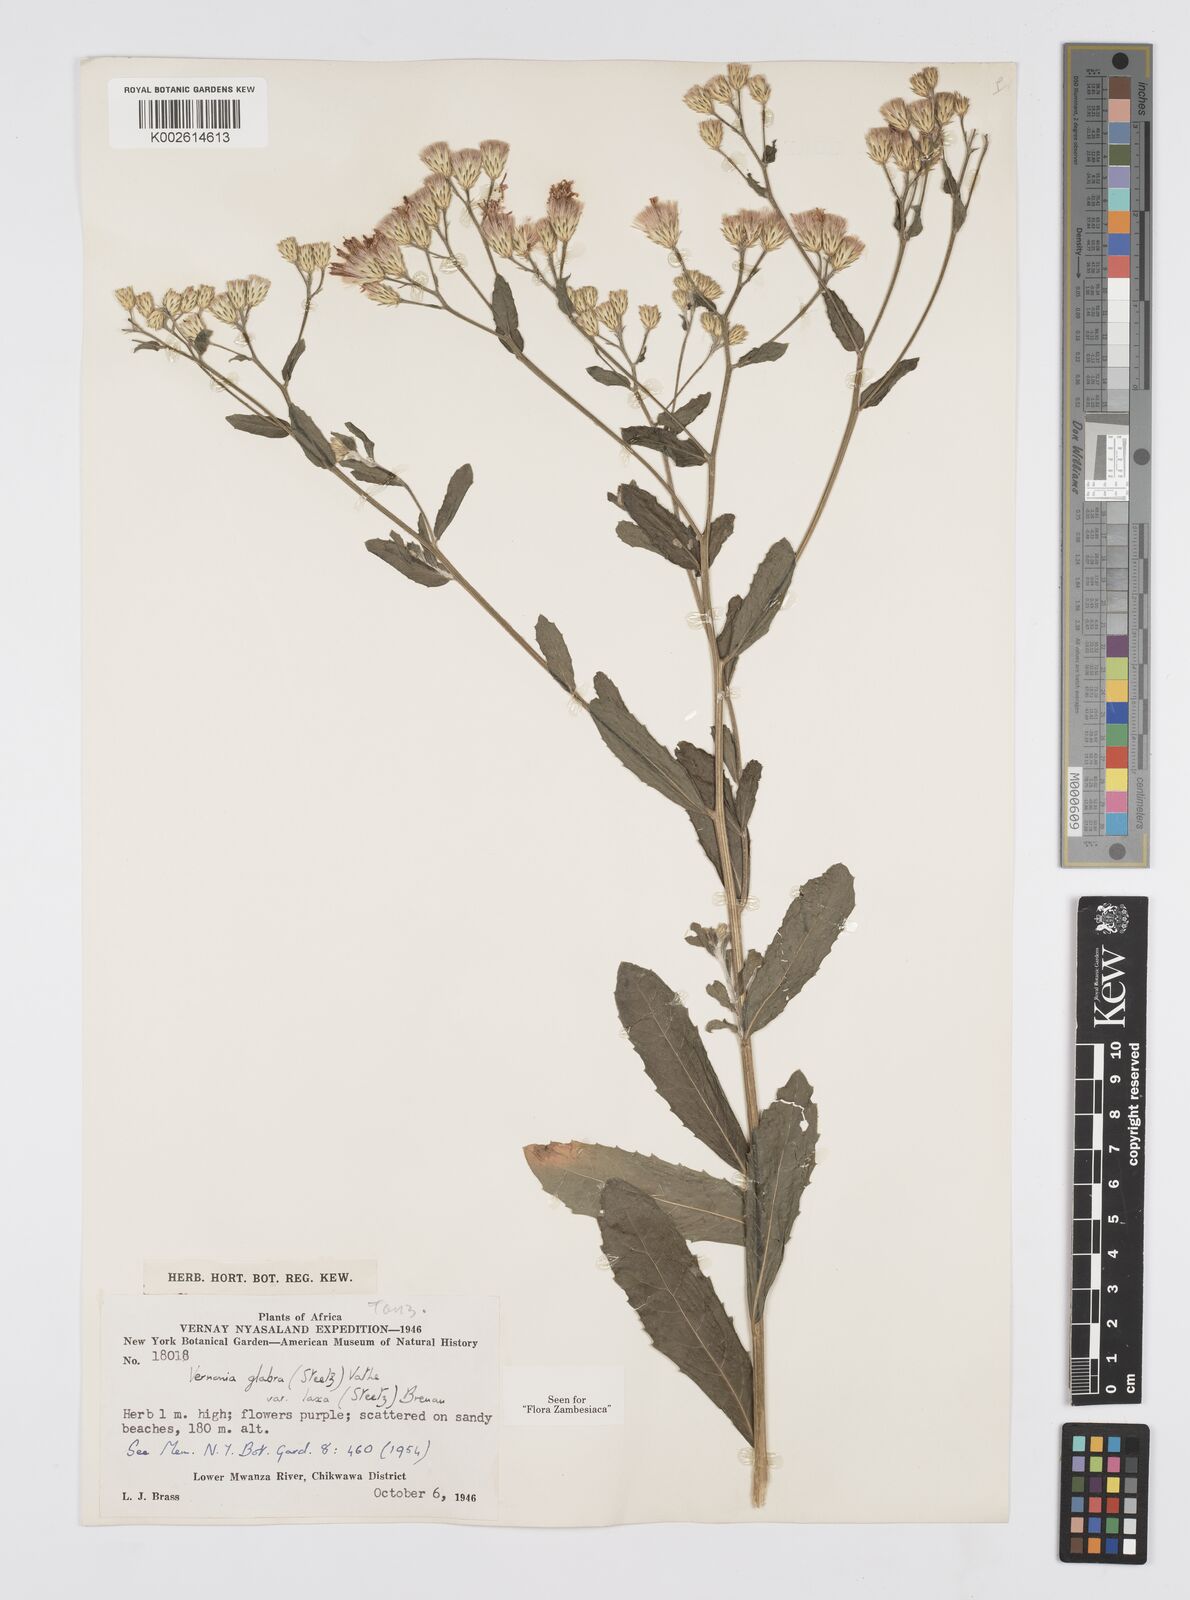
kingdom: Plantae
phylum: Tracheophyta
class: Magnoliopsida
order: Asterales
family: Asteraceae
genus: Linzia
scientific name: Linzia glabra
